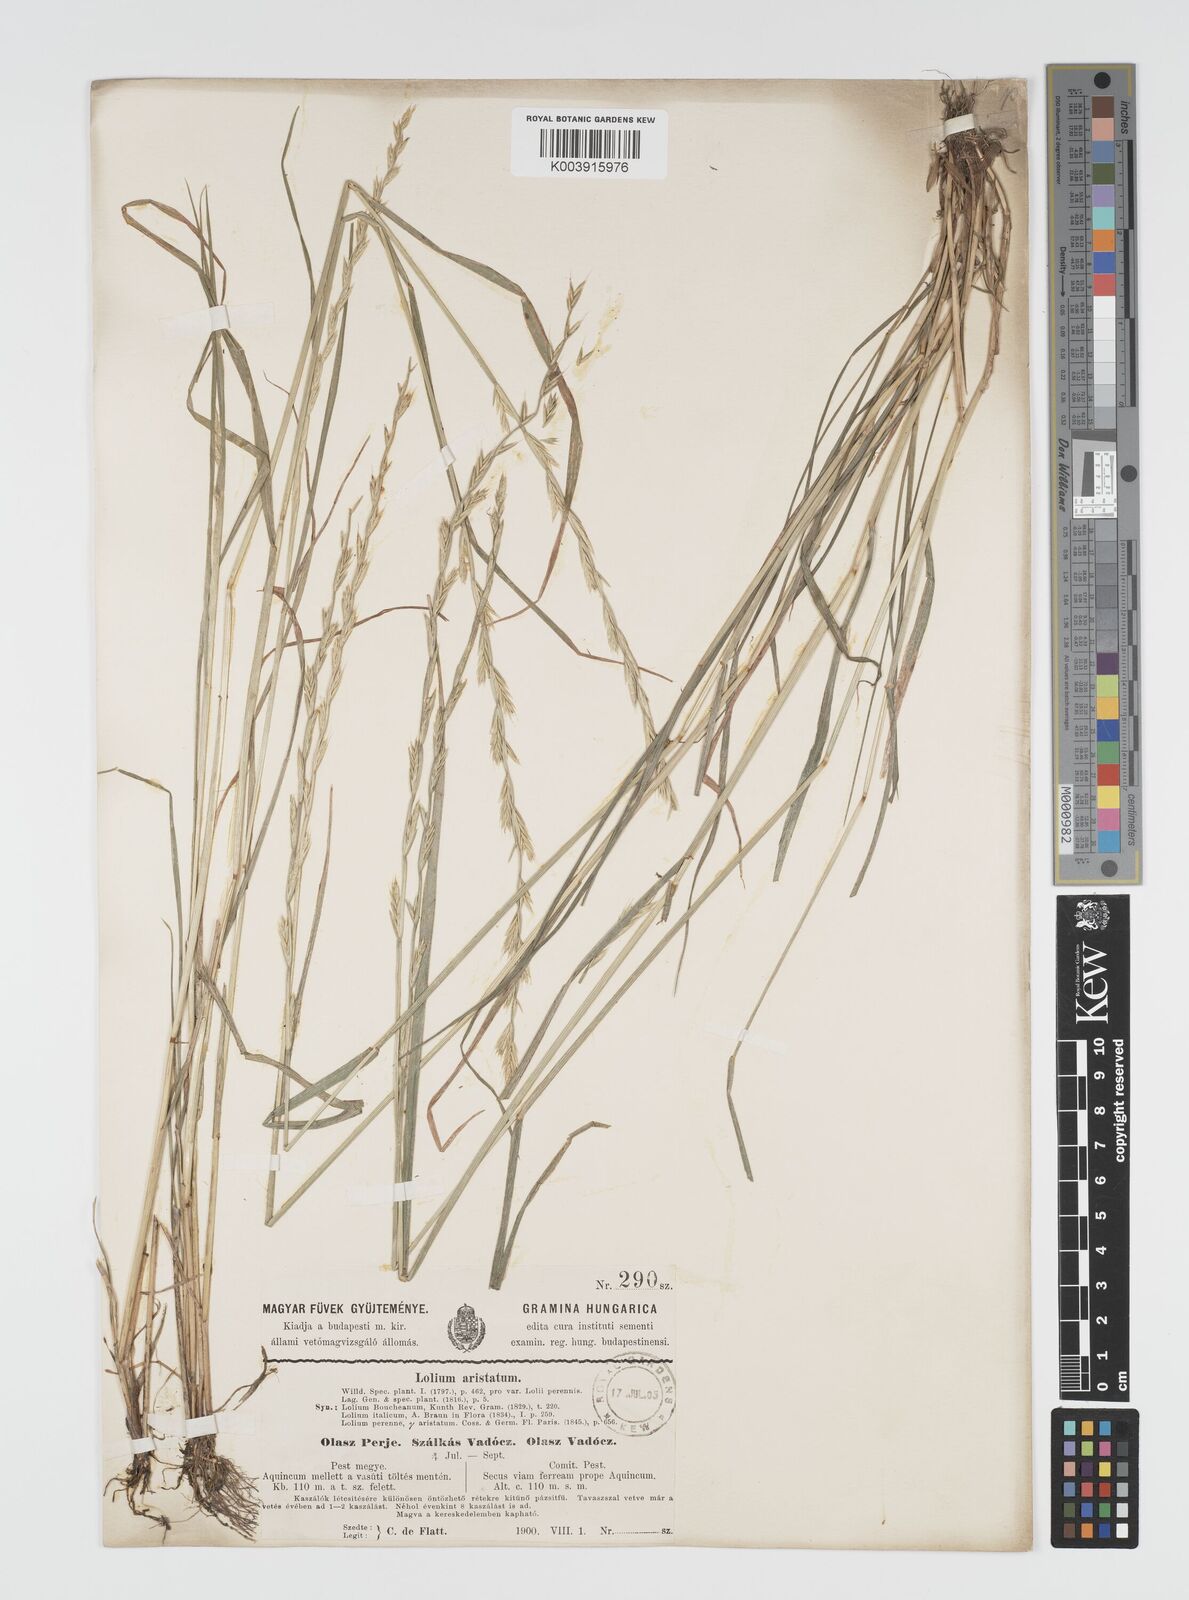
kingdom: Plantae
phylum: Tracheophyta
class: Liliopsida
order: Poales
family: Poaceae
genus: Lolium
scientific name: Lolium multiflorum
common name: Annual ryegrass
